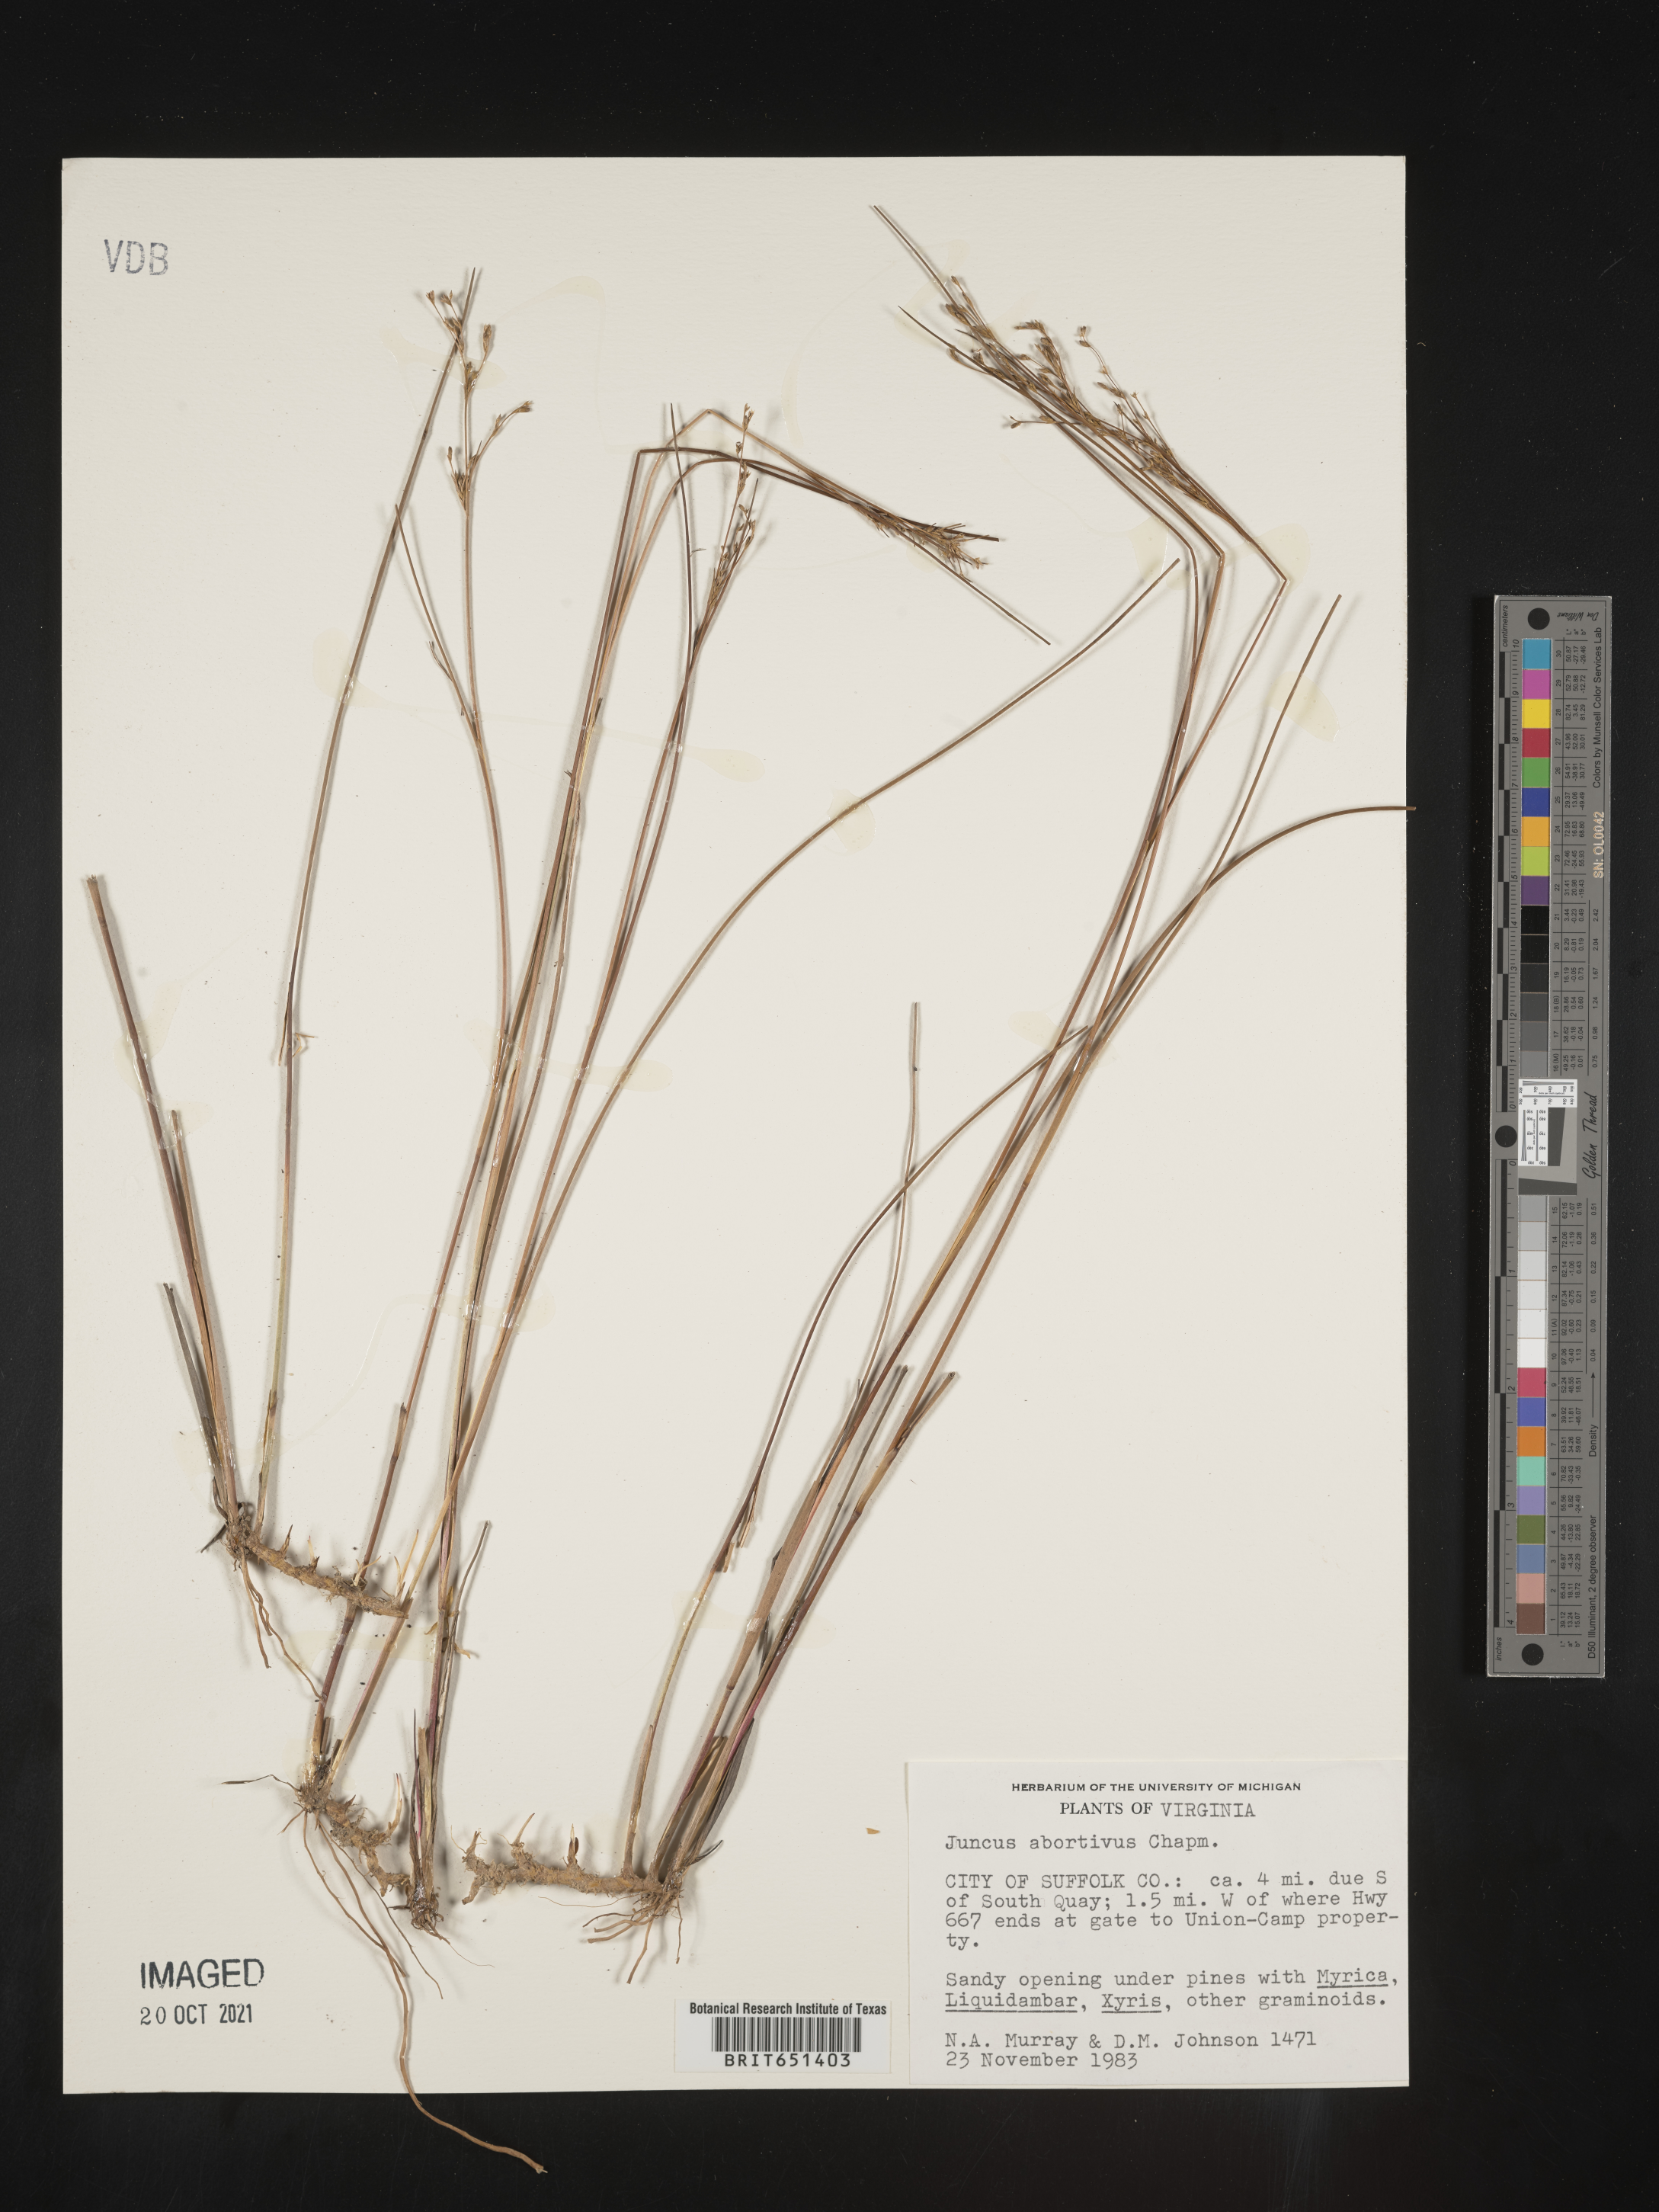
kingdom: Plantae
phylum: Tracheophyta
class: Liliopsida
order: Poales
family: Juncaceae
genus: Juncus
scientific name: Juncus abortivus
